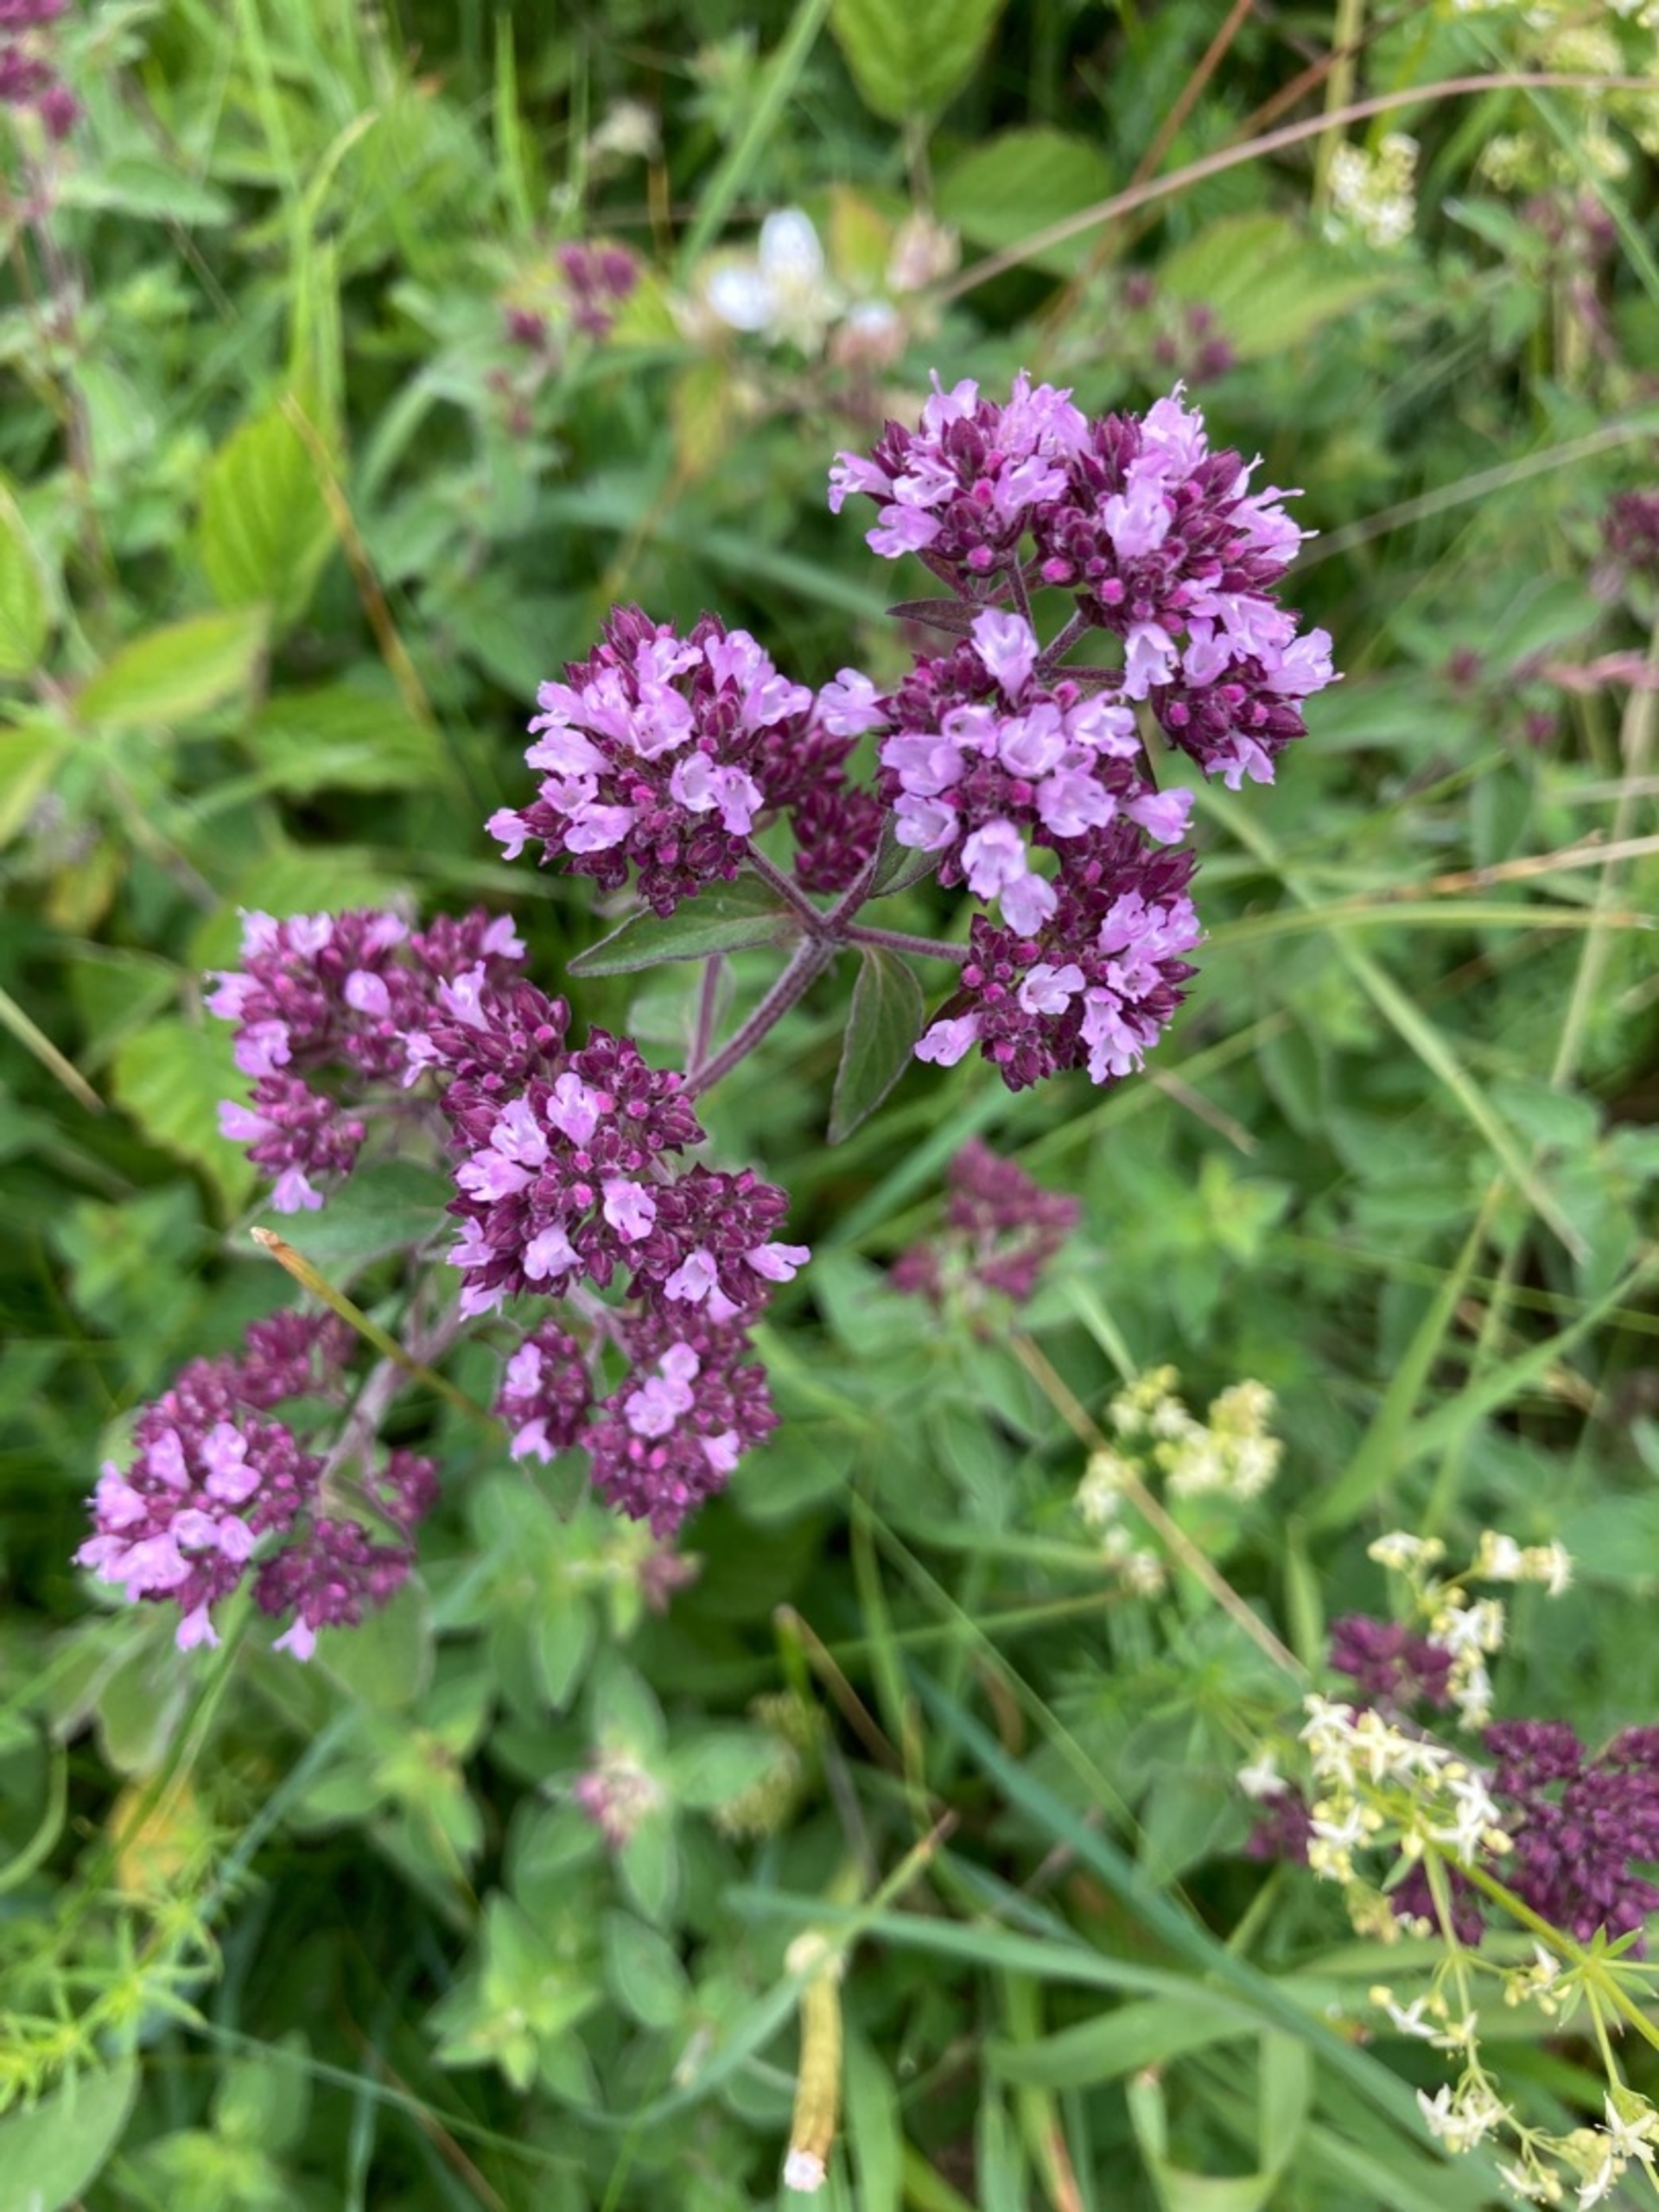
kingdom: Plantae
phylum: Tracheophyta
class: Magnoliopsida
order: Lamiales
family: Lamiaceae
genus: Origanum
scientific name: Origanum vulgare
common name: Merian
